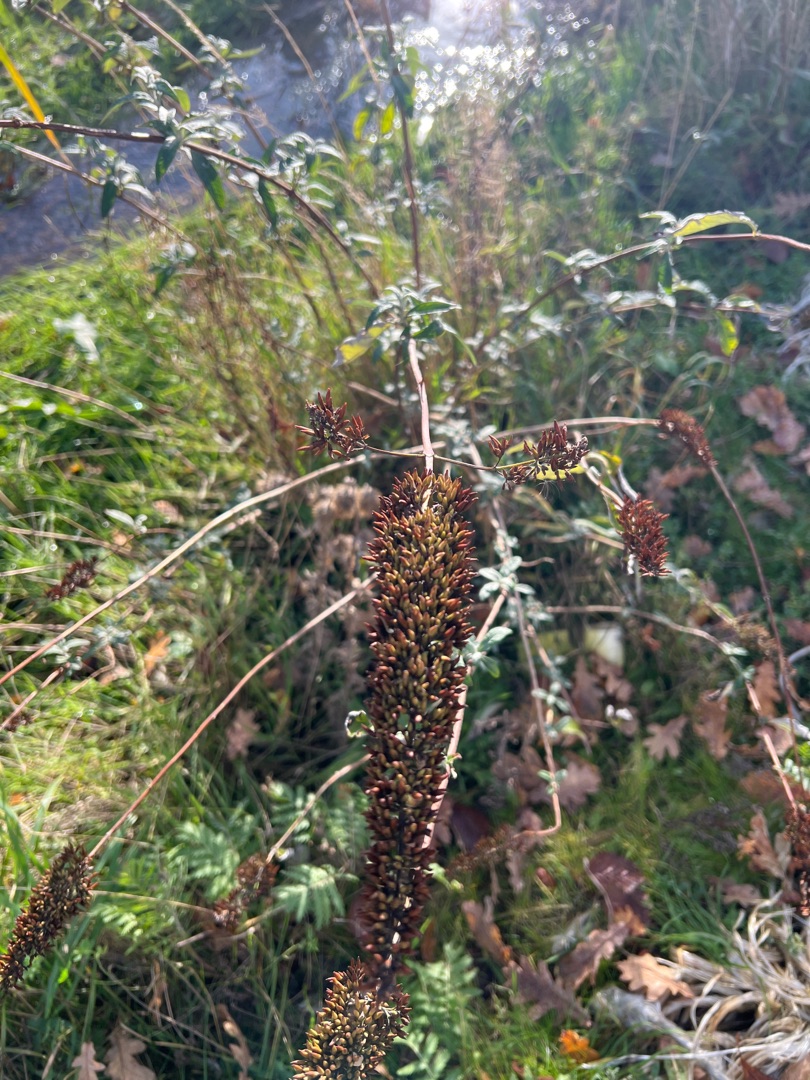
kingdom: Plantae
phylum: Tracheophyta
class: Magnoliopsida
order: Lamiales
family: Scrophulariaceae
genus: Buddleja
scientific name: Buddleja davidii
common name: Sommerfuglebusk
